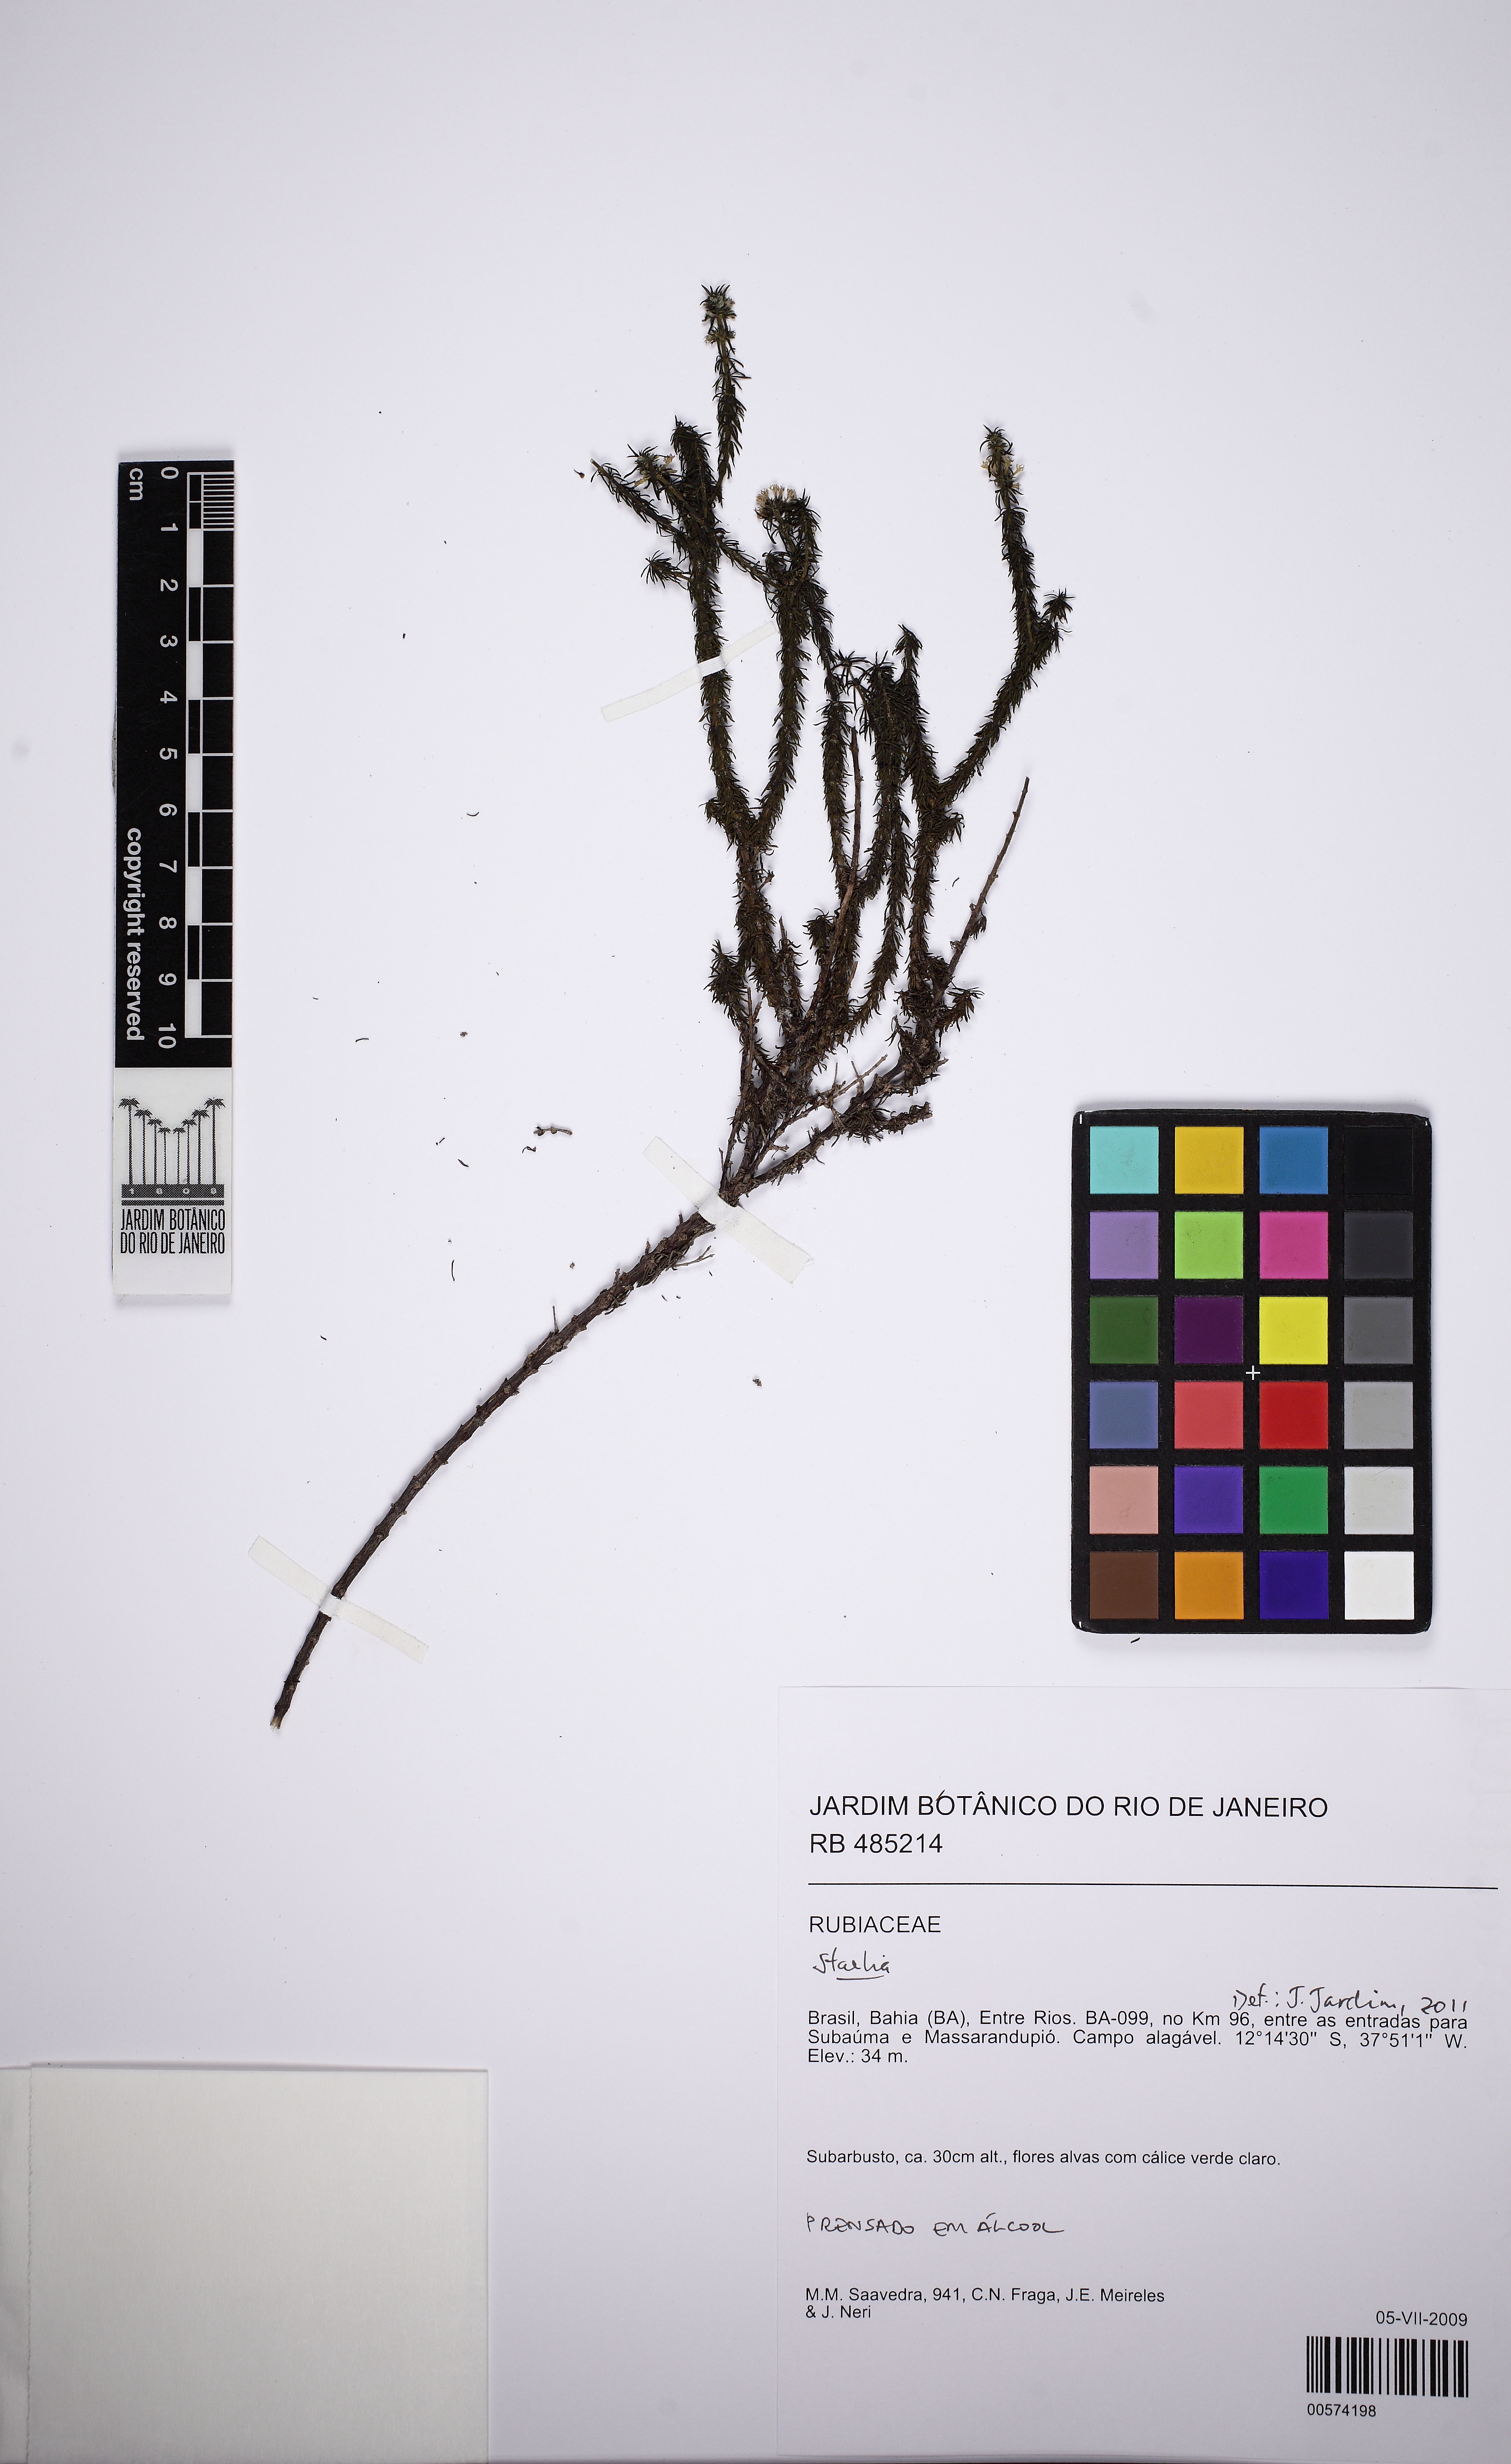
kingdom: Plantae
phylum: Tracheophyta
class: Magnoliopsida
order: Gentianales
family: Rubiaceae
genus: Staelia
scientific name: Staelia
